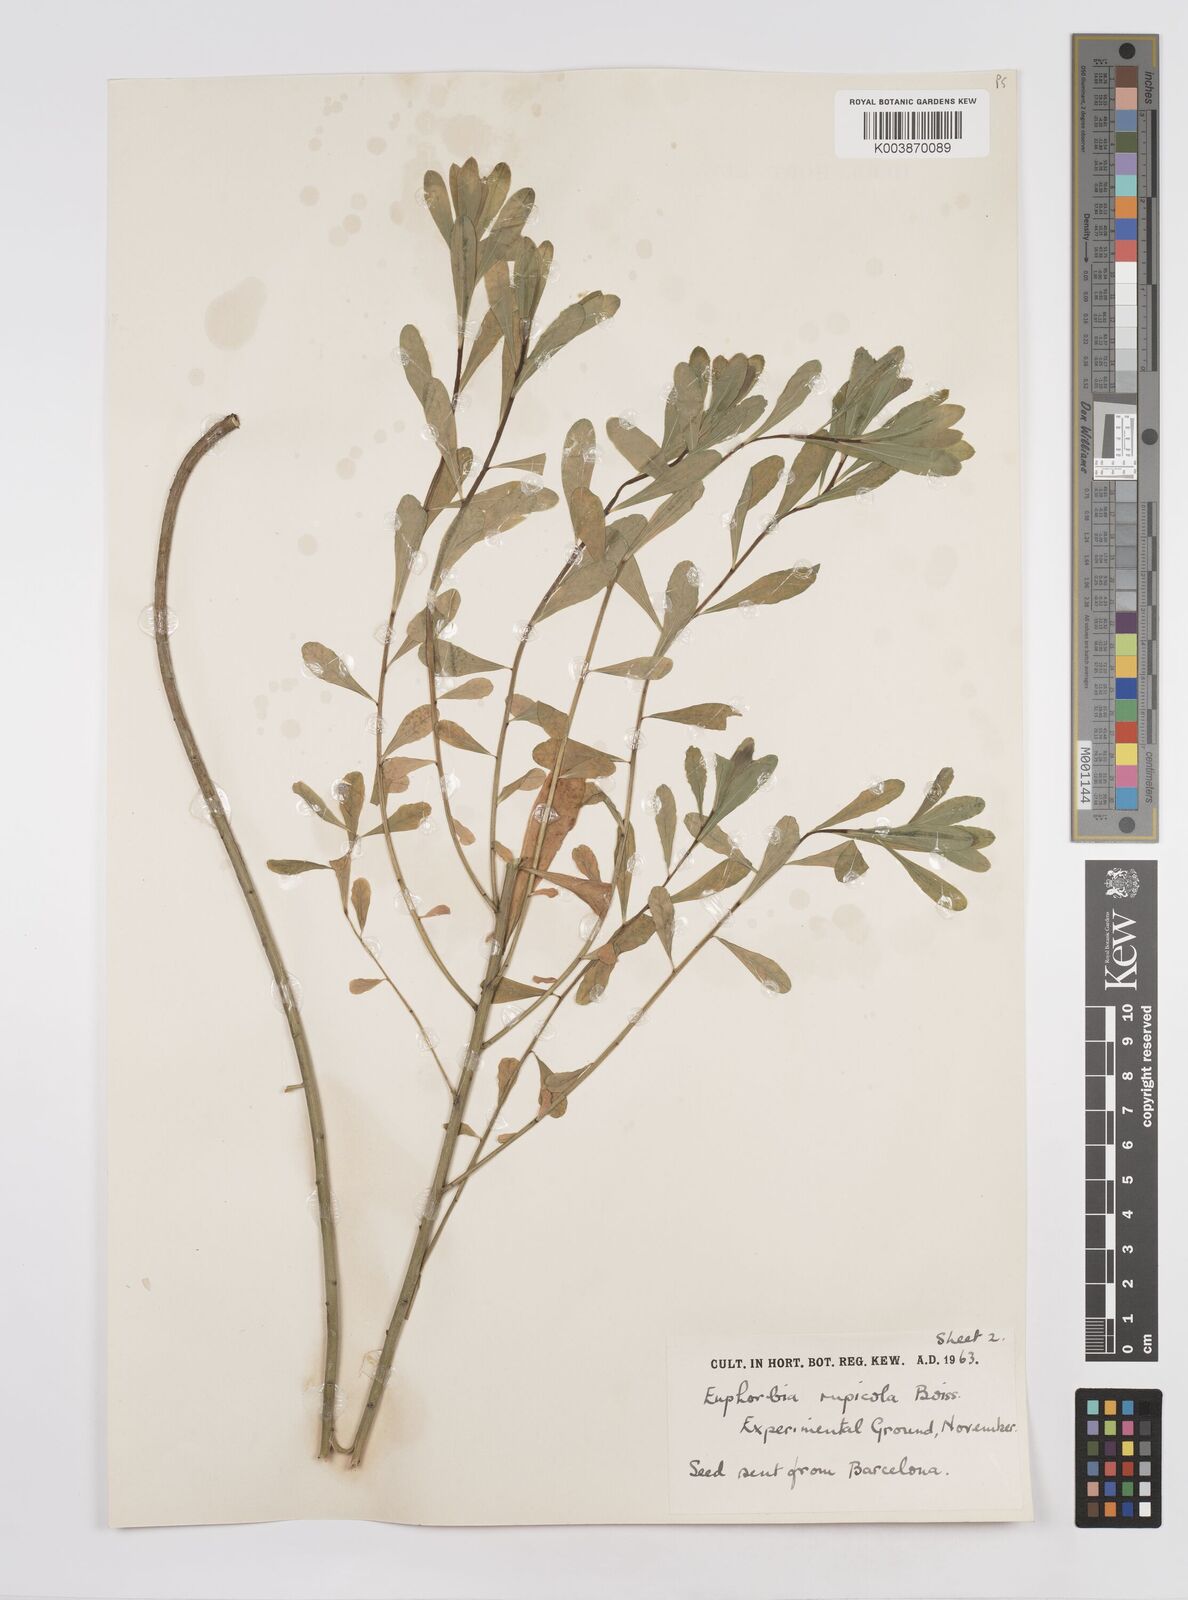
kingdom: Plantae
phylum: Tracheophyta
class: Magnoliopsida
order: Malpighiales
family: Euphorbiaceae
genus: Euphorbia
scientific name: Euphorbia
